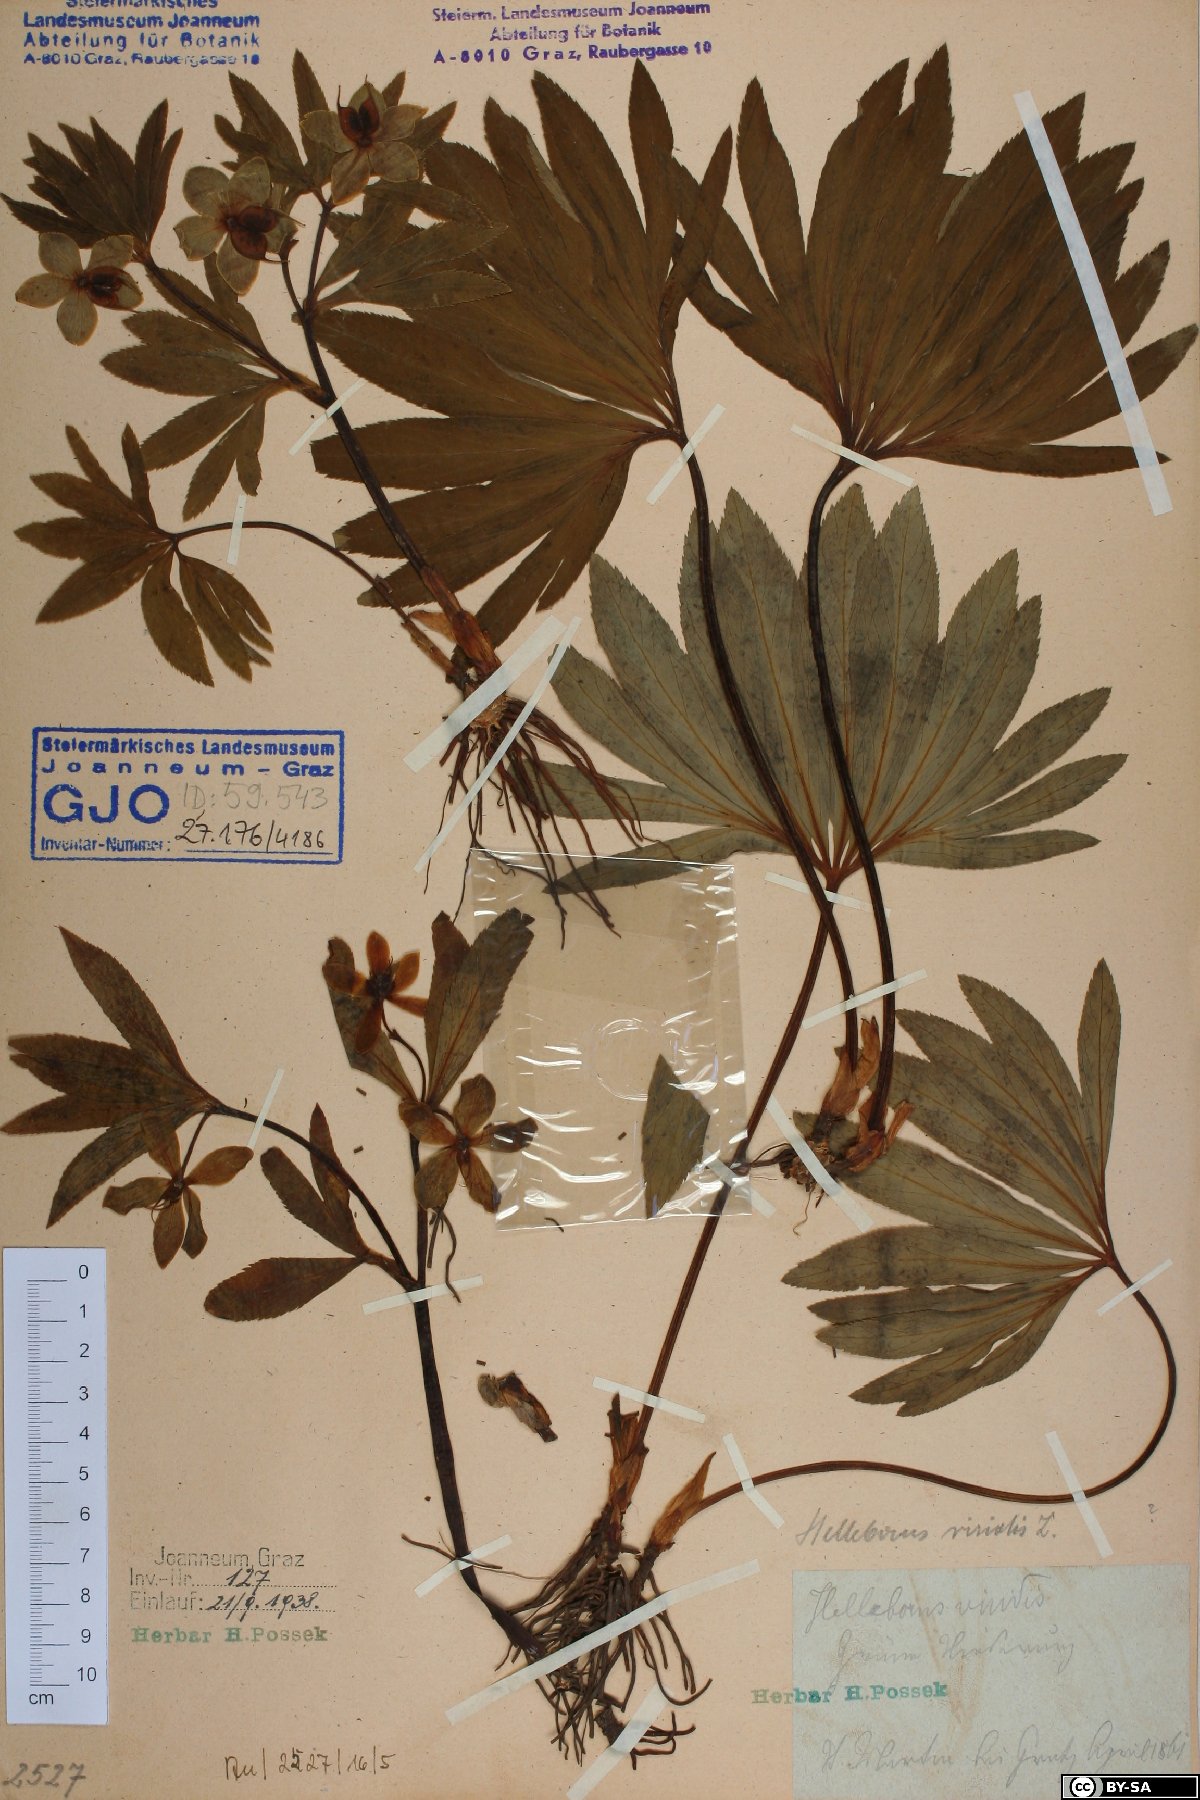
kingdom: Plantae
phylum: Tracheophyta
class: Magnoliopsida
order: Ranunculales
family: Ranunculaceae
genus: Helleborus
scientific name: Helleborus dumetorum
